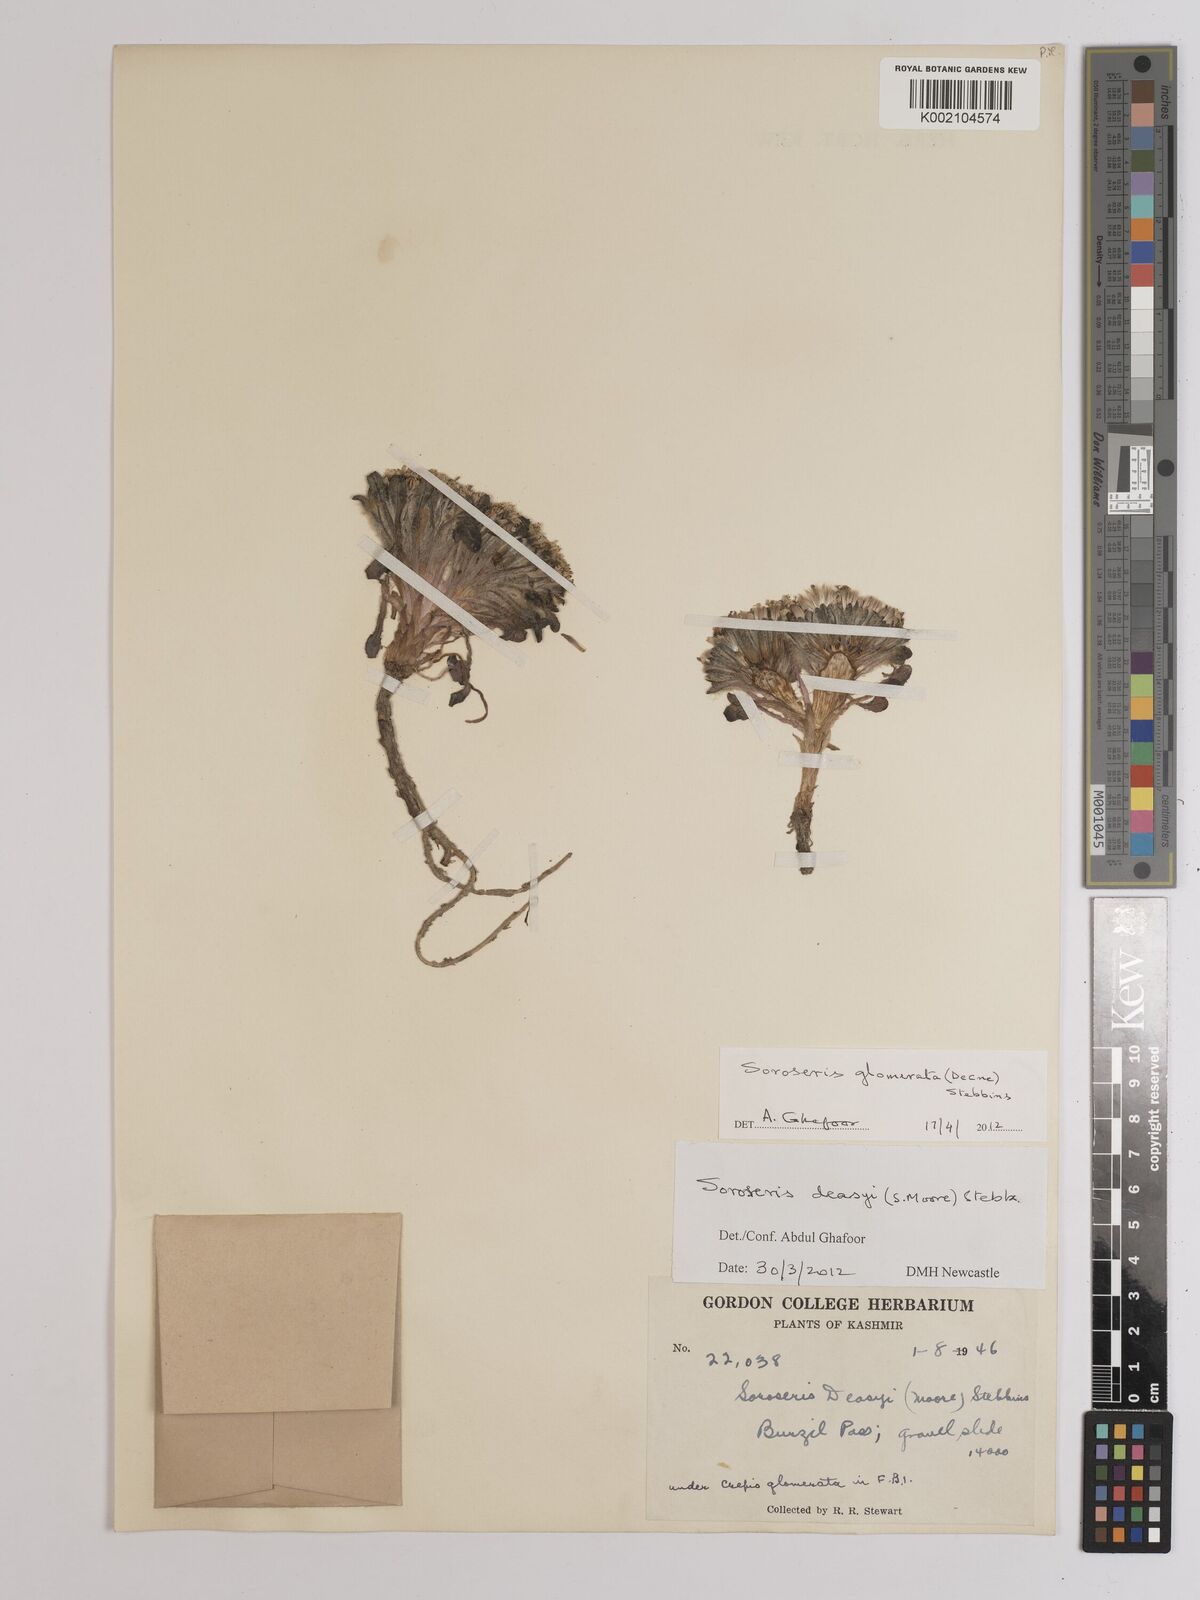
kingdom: Plantae
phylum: Tracheophyta
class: Magnoliopsida
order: Asterales
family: Asteraceae
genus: Soroseris
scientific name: Soroseris deasyi
